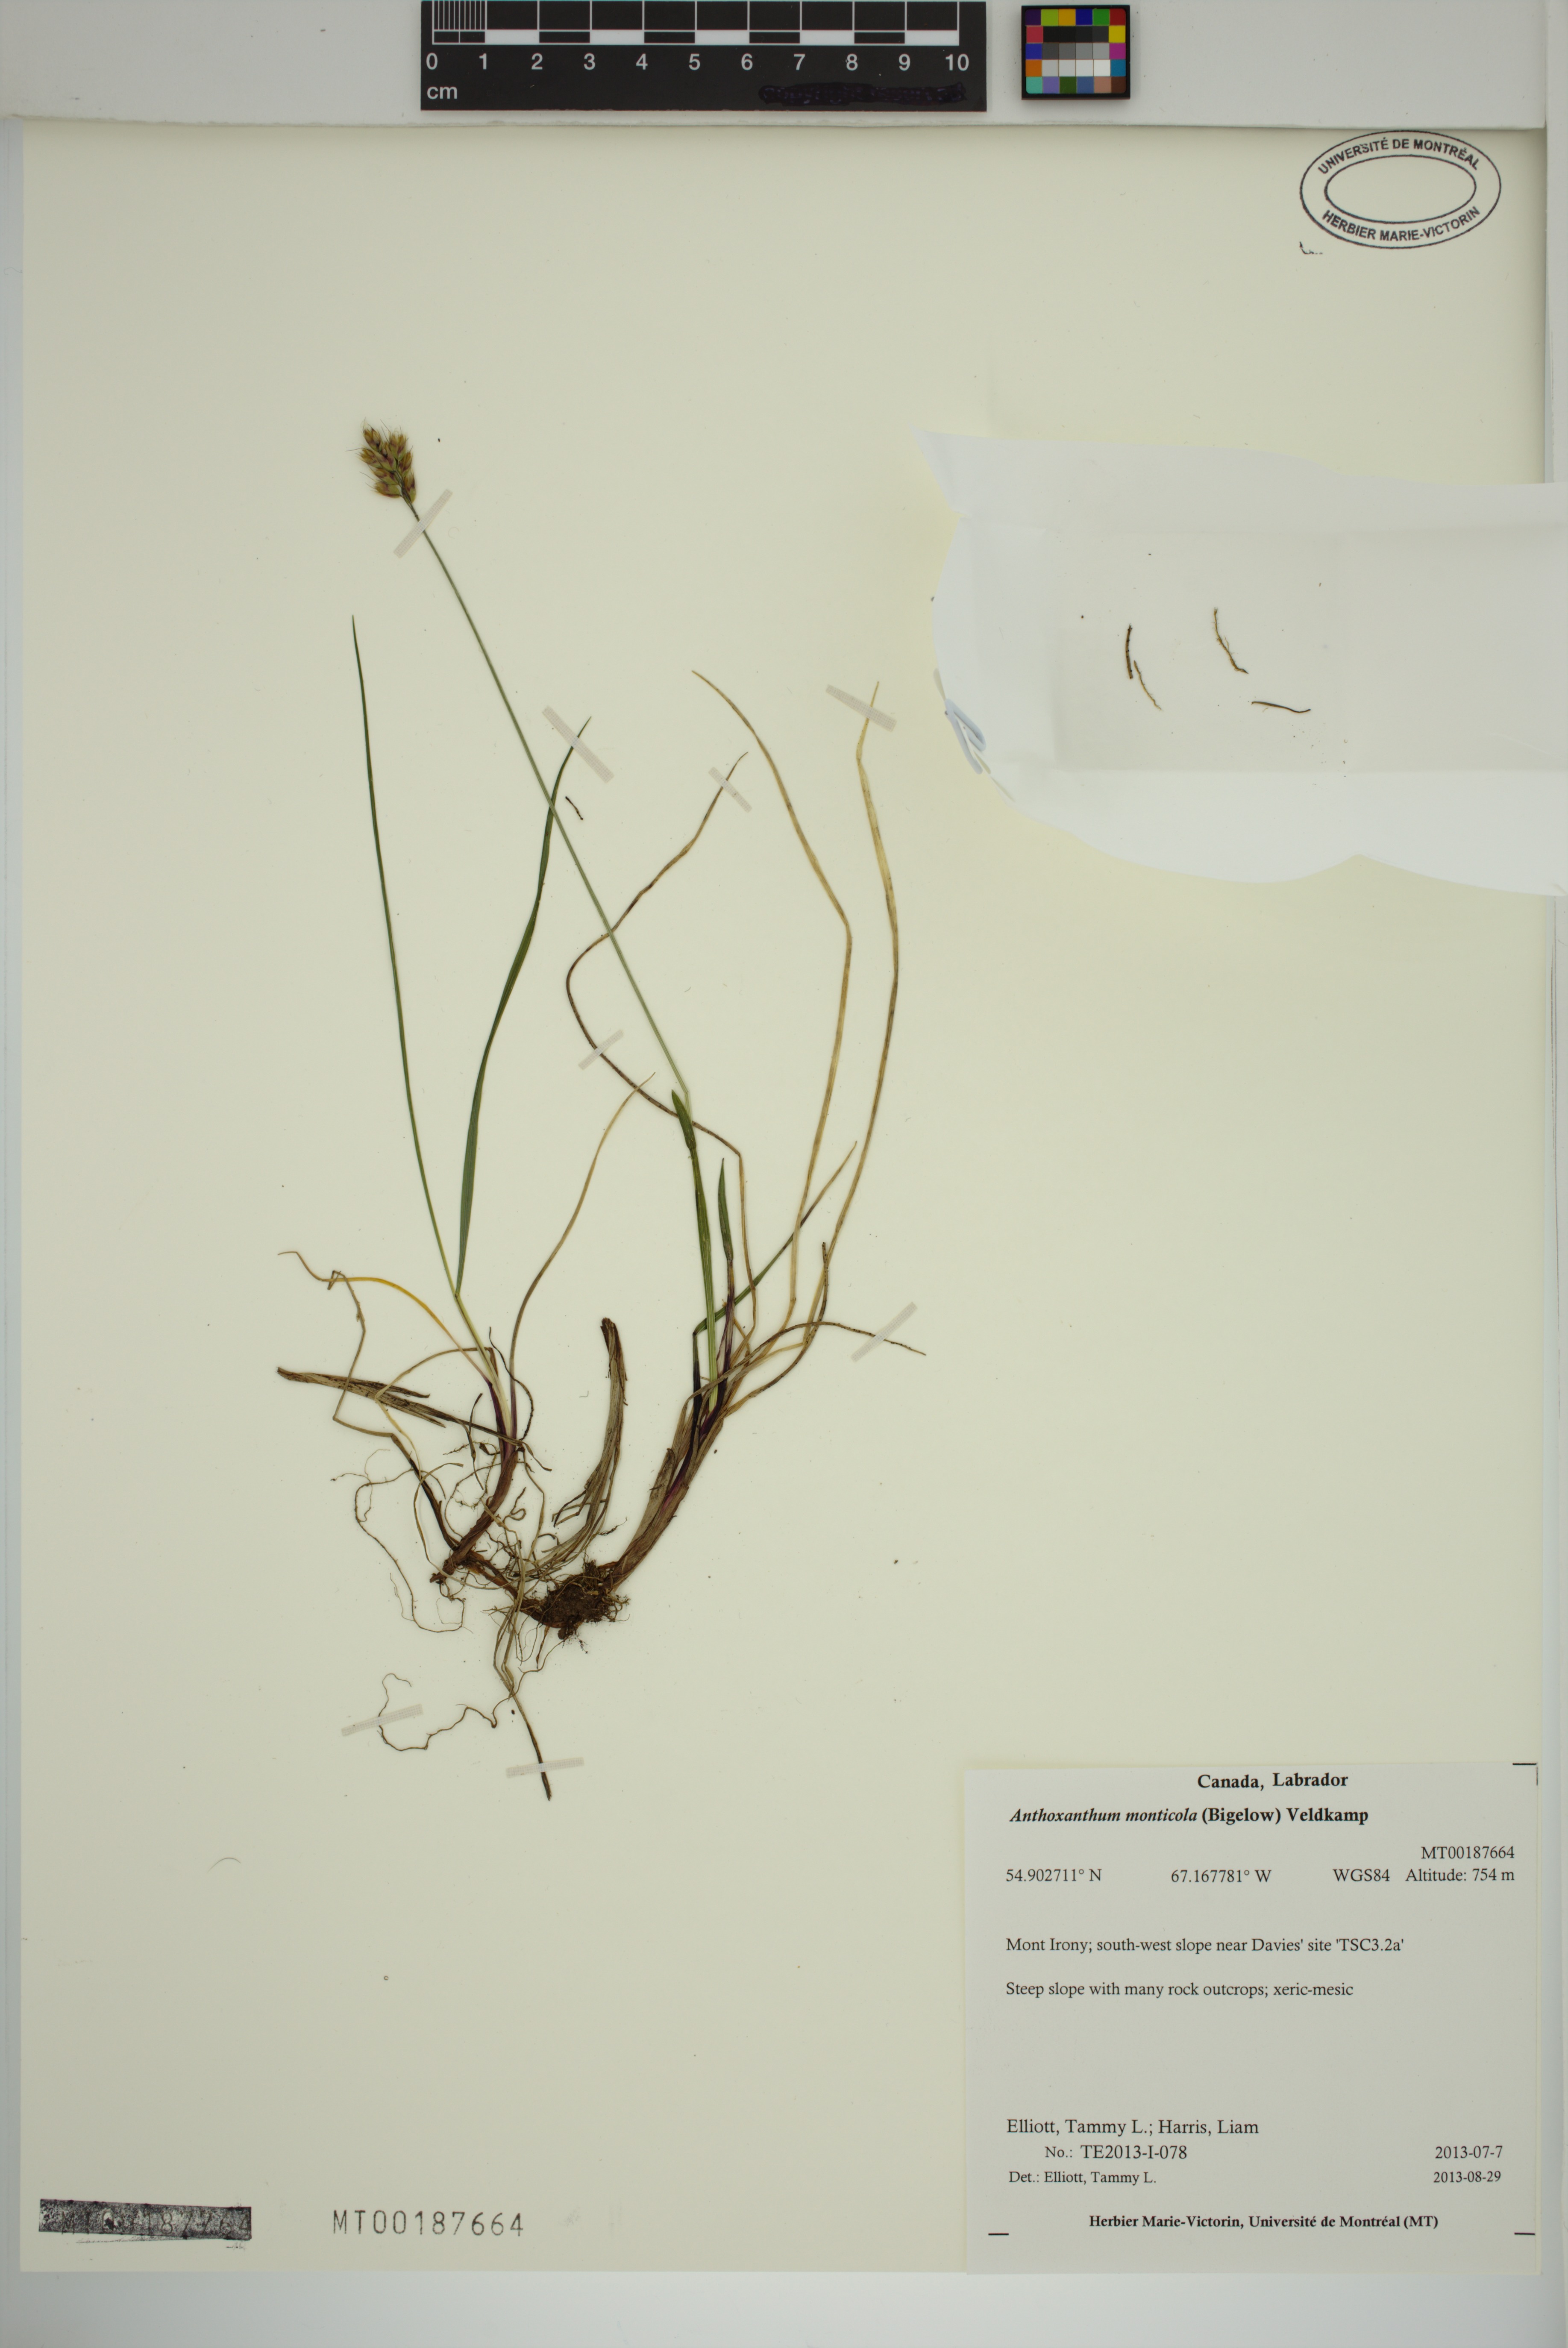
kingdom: Plantae
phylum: Tracheophyta
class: Liliopsida
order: Poales
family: Poaceae
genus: Anthoxanthum
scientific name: Anthoxanthum monticola
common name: Alpine sweetgrass
